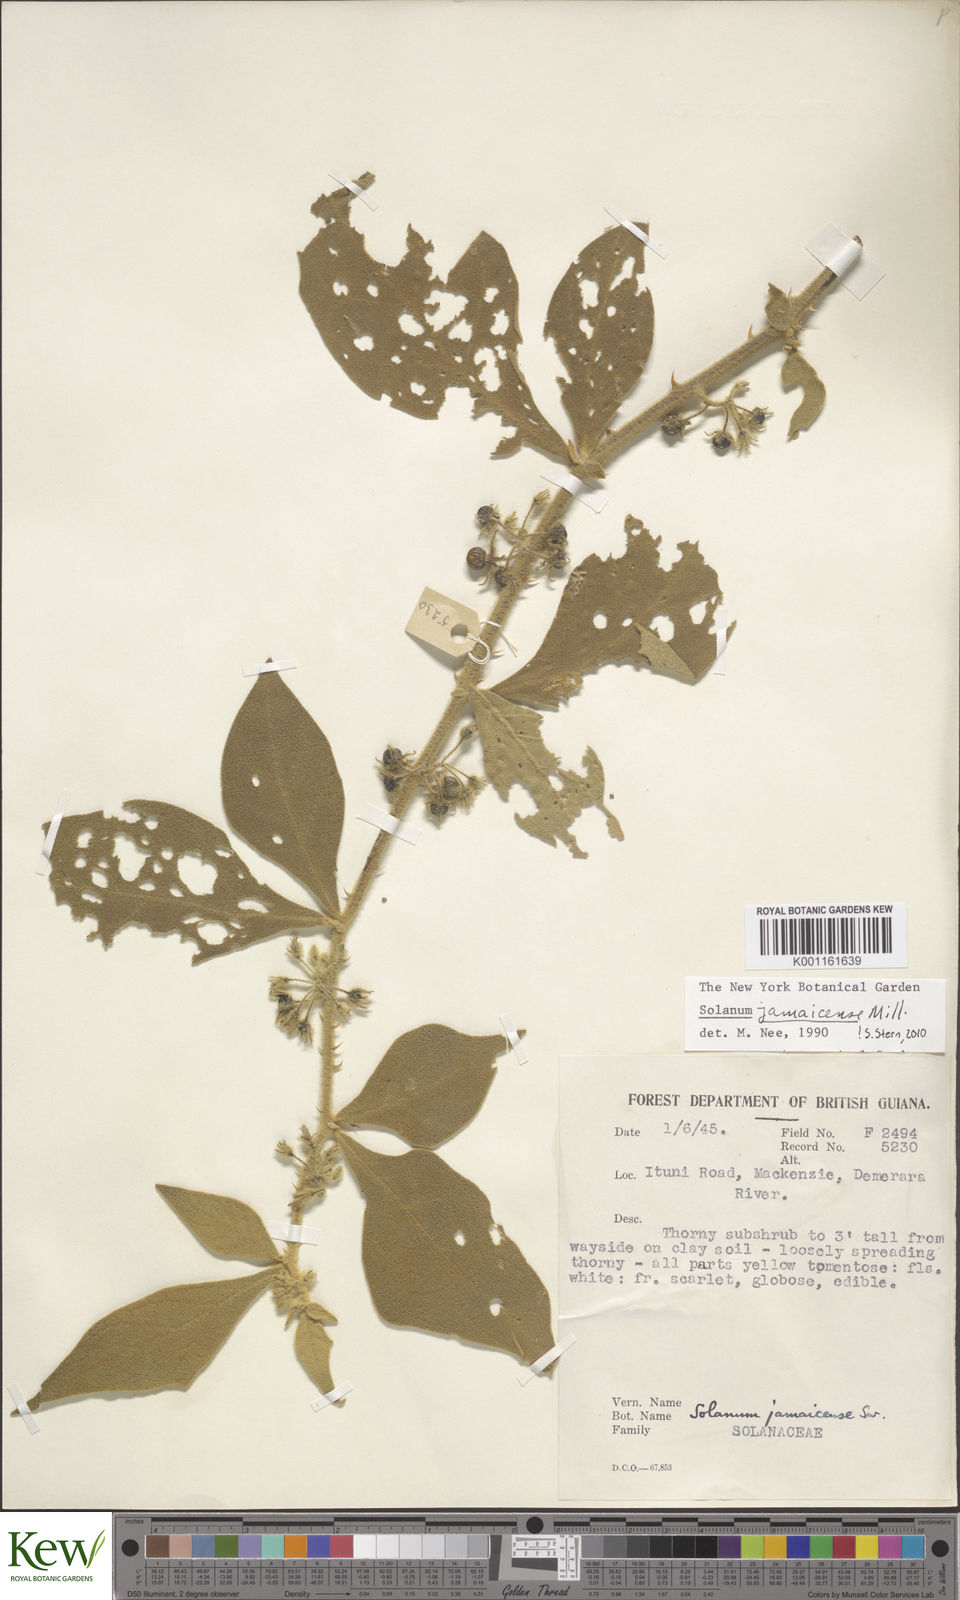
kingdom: Plantae
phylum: Tracheophyta
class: Magnoliopsida
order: Solanales
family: Solanaceae
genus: Solanum
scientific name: Solanum jamaicense
